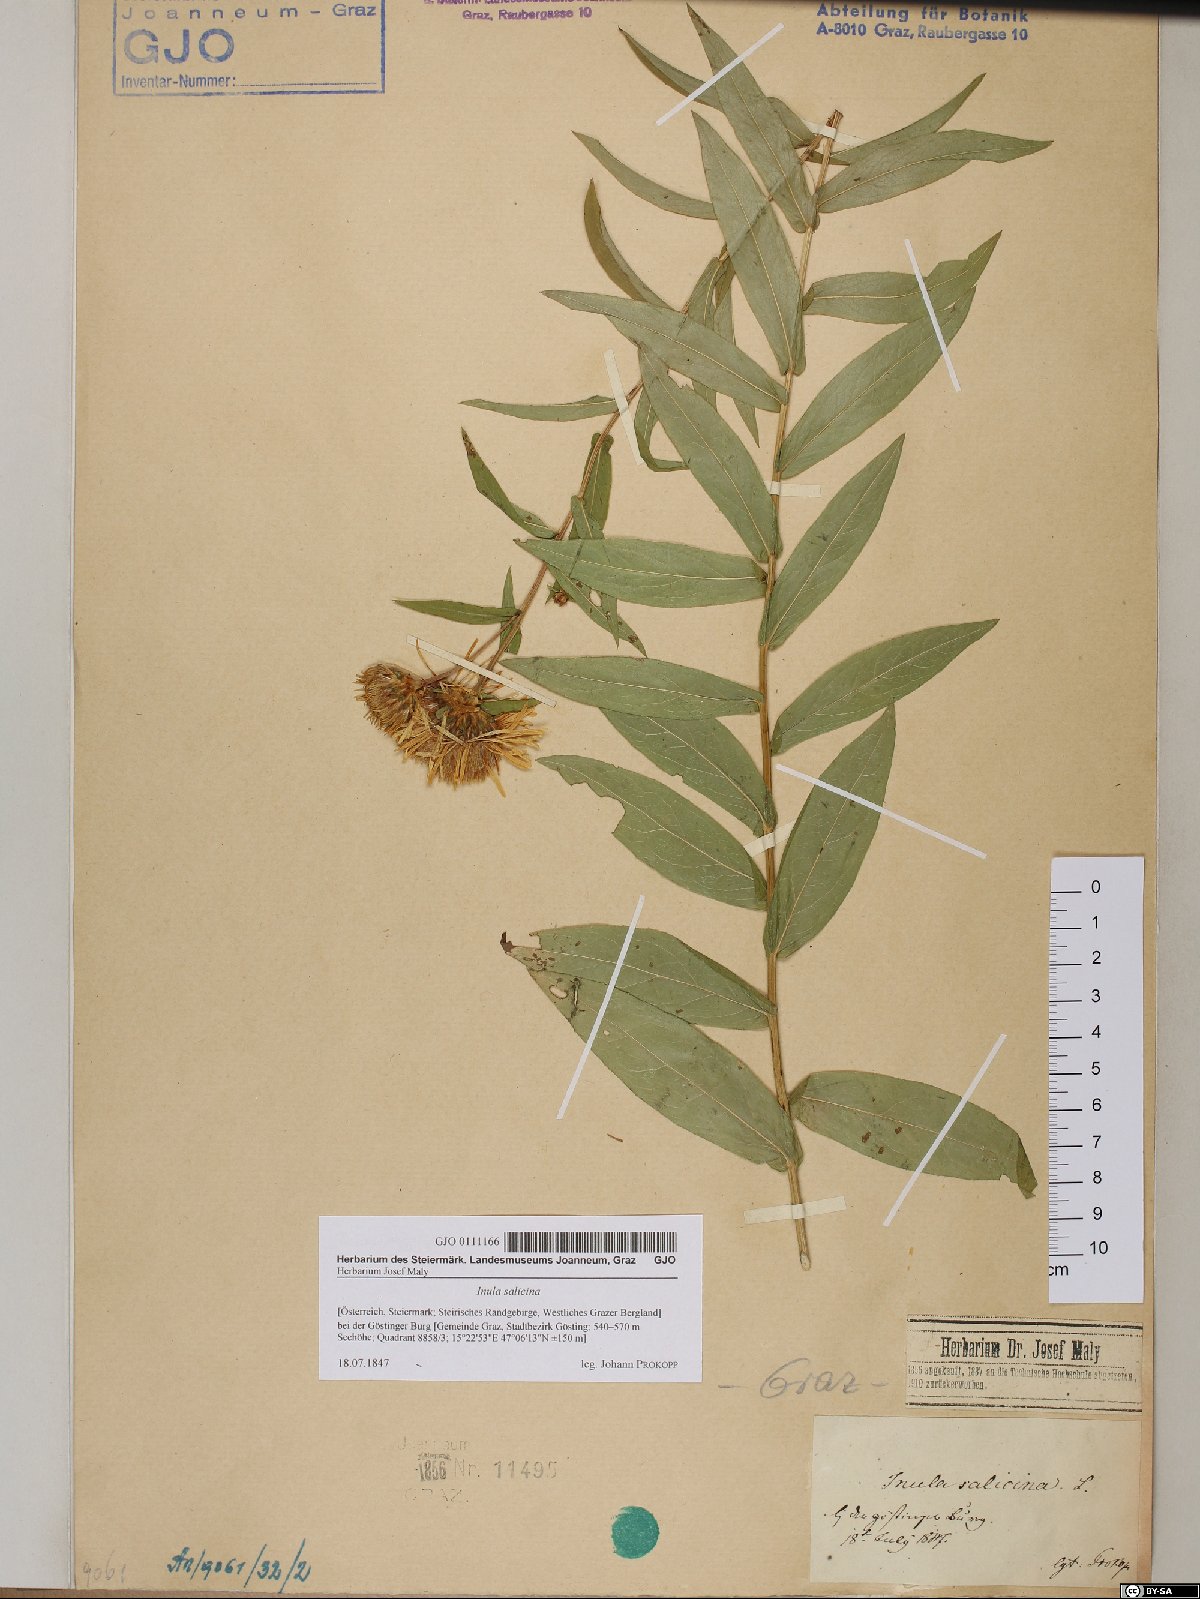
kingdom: Plantae
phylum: Tracheophyta
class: Magnoliopsida
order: Asterales
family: Asteraceae
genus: Pentanema
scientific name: Pentanema salicinum
